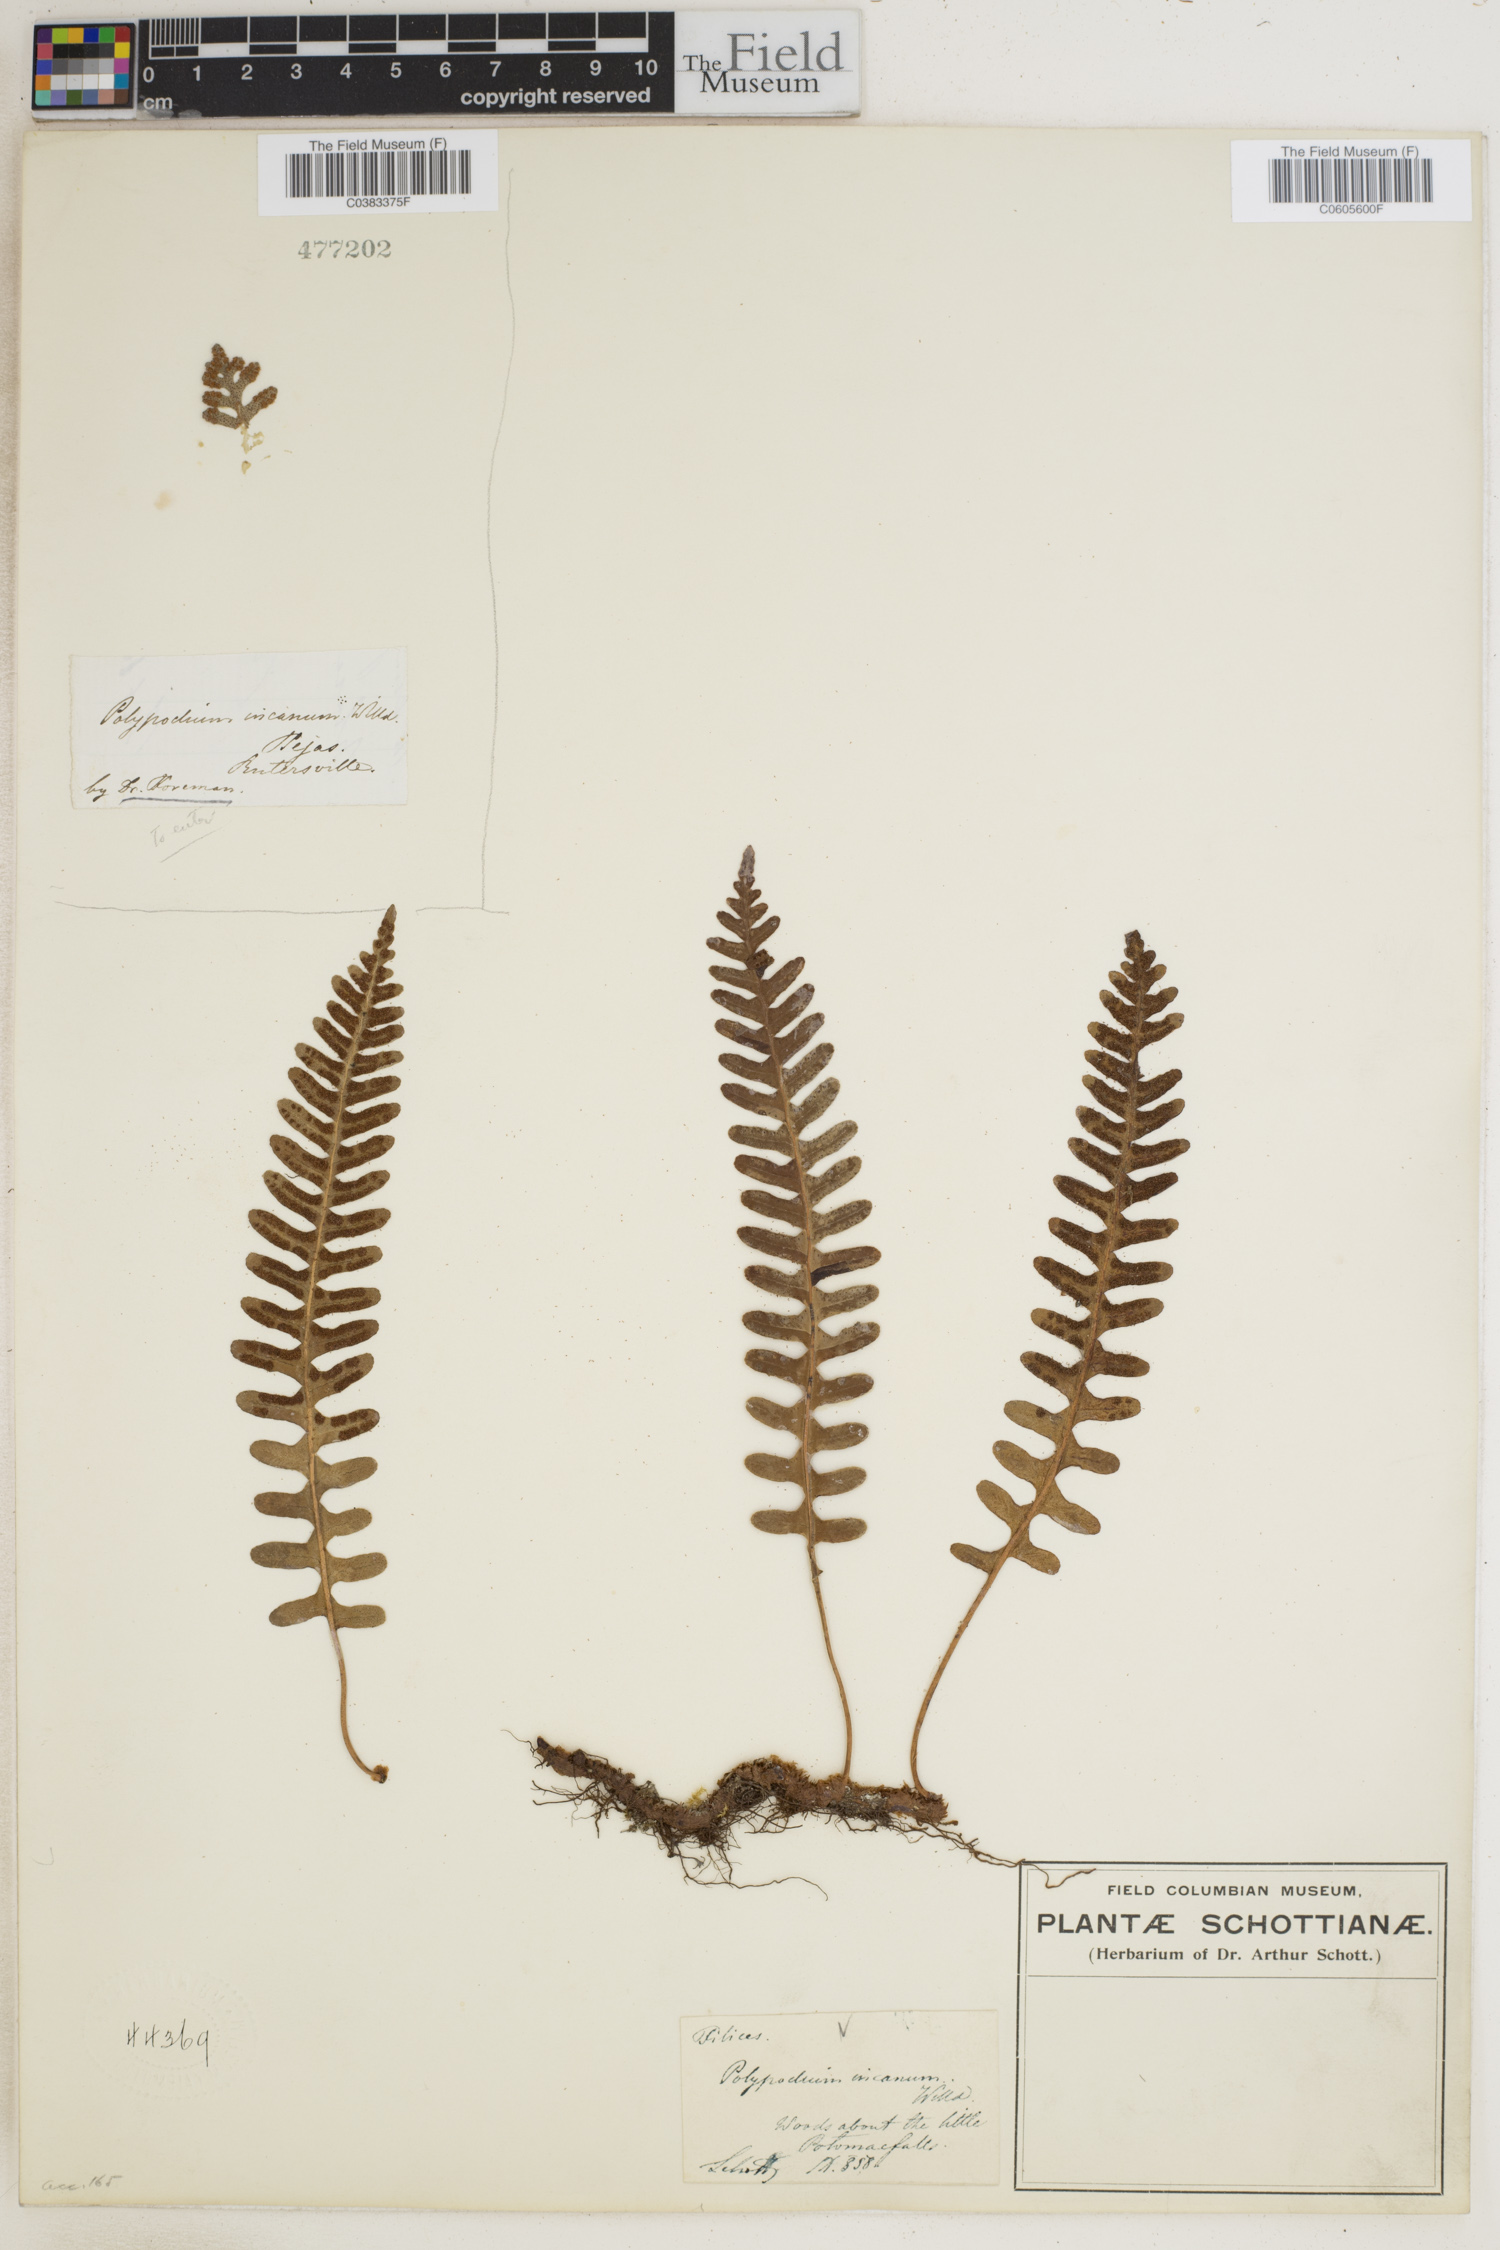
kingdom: Plantae
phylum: Tracheophyta
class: Polypodiopsida
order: Polypodiales
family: Polypodiaceae
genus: Pleopeltis
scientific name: Pleopeltis polypodioides
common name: Resurrection fern
